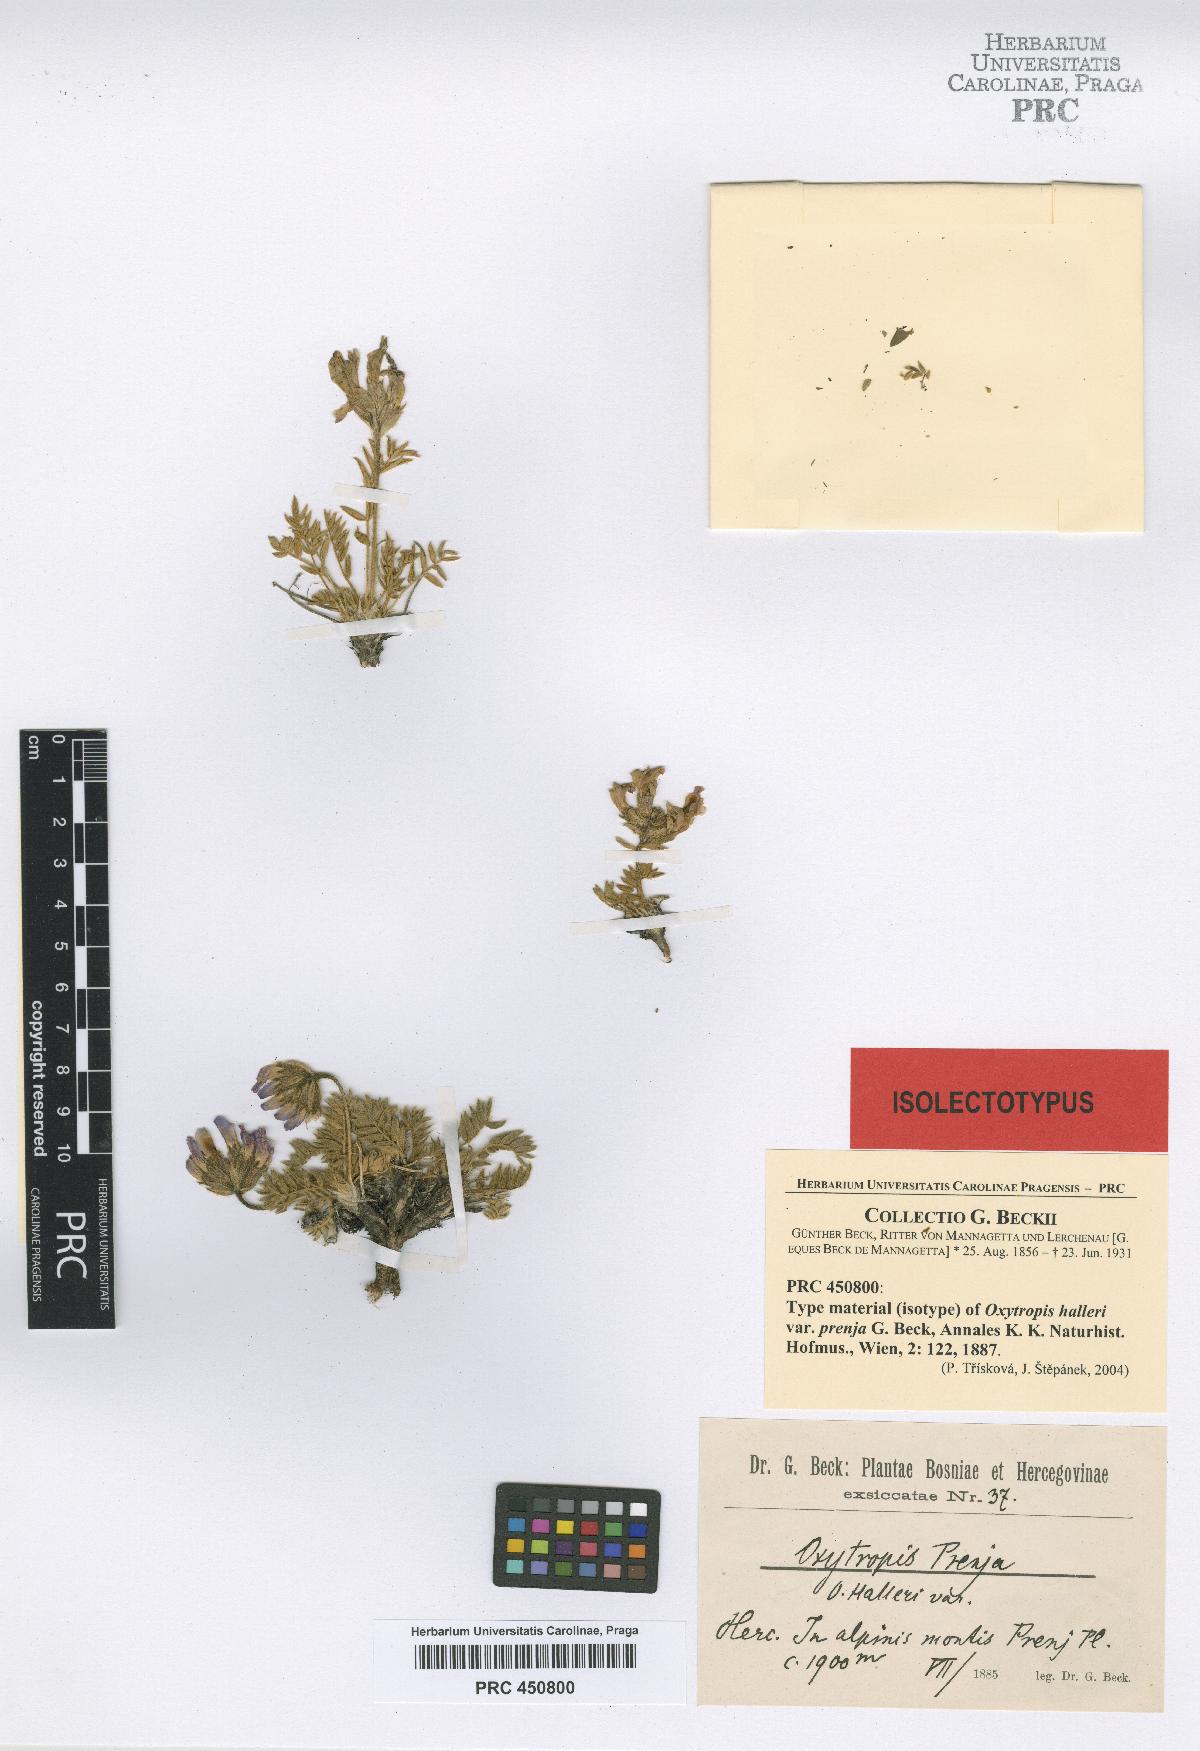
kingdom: Plantae
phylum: Tracheophyta
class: Magnoliopsida
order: Fabales
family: Fabaceae
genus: Oxytropis
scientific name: Oxytropis prenja
